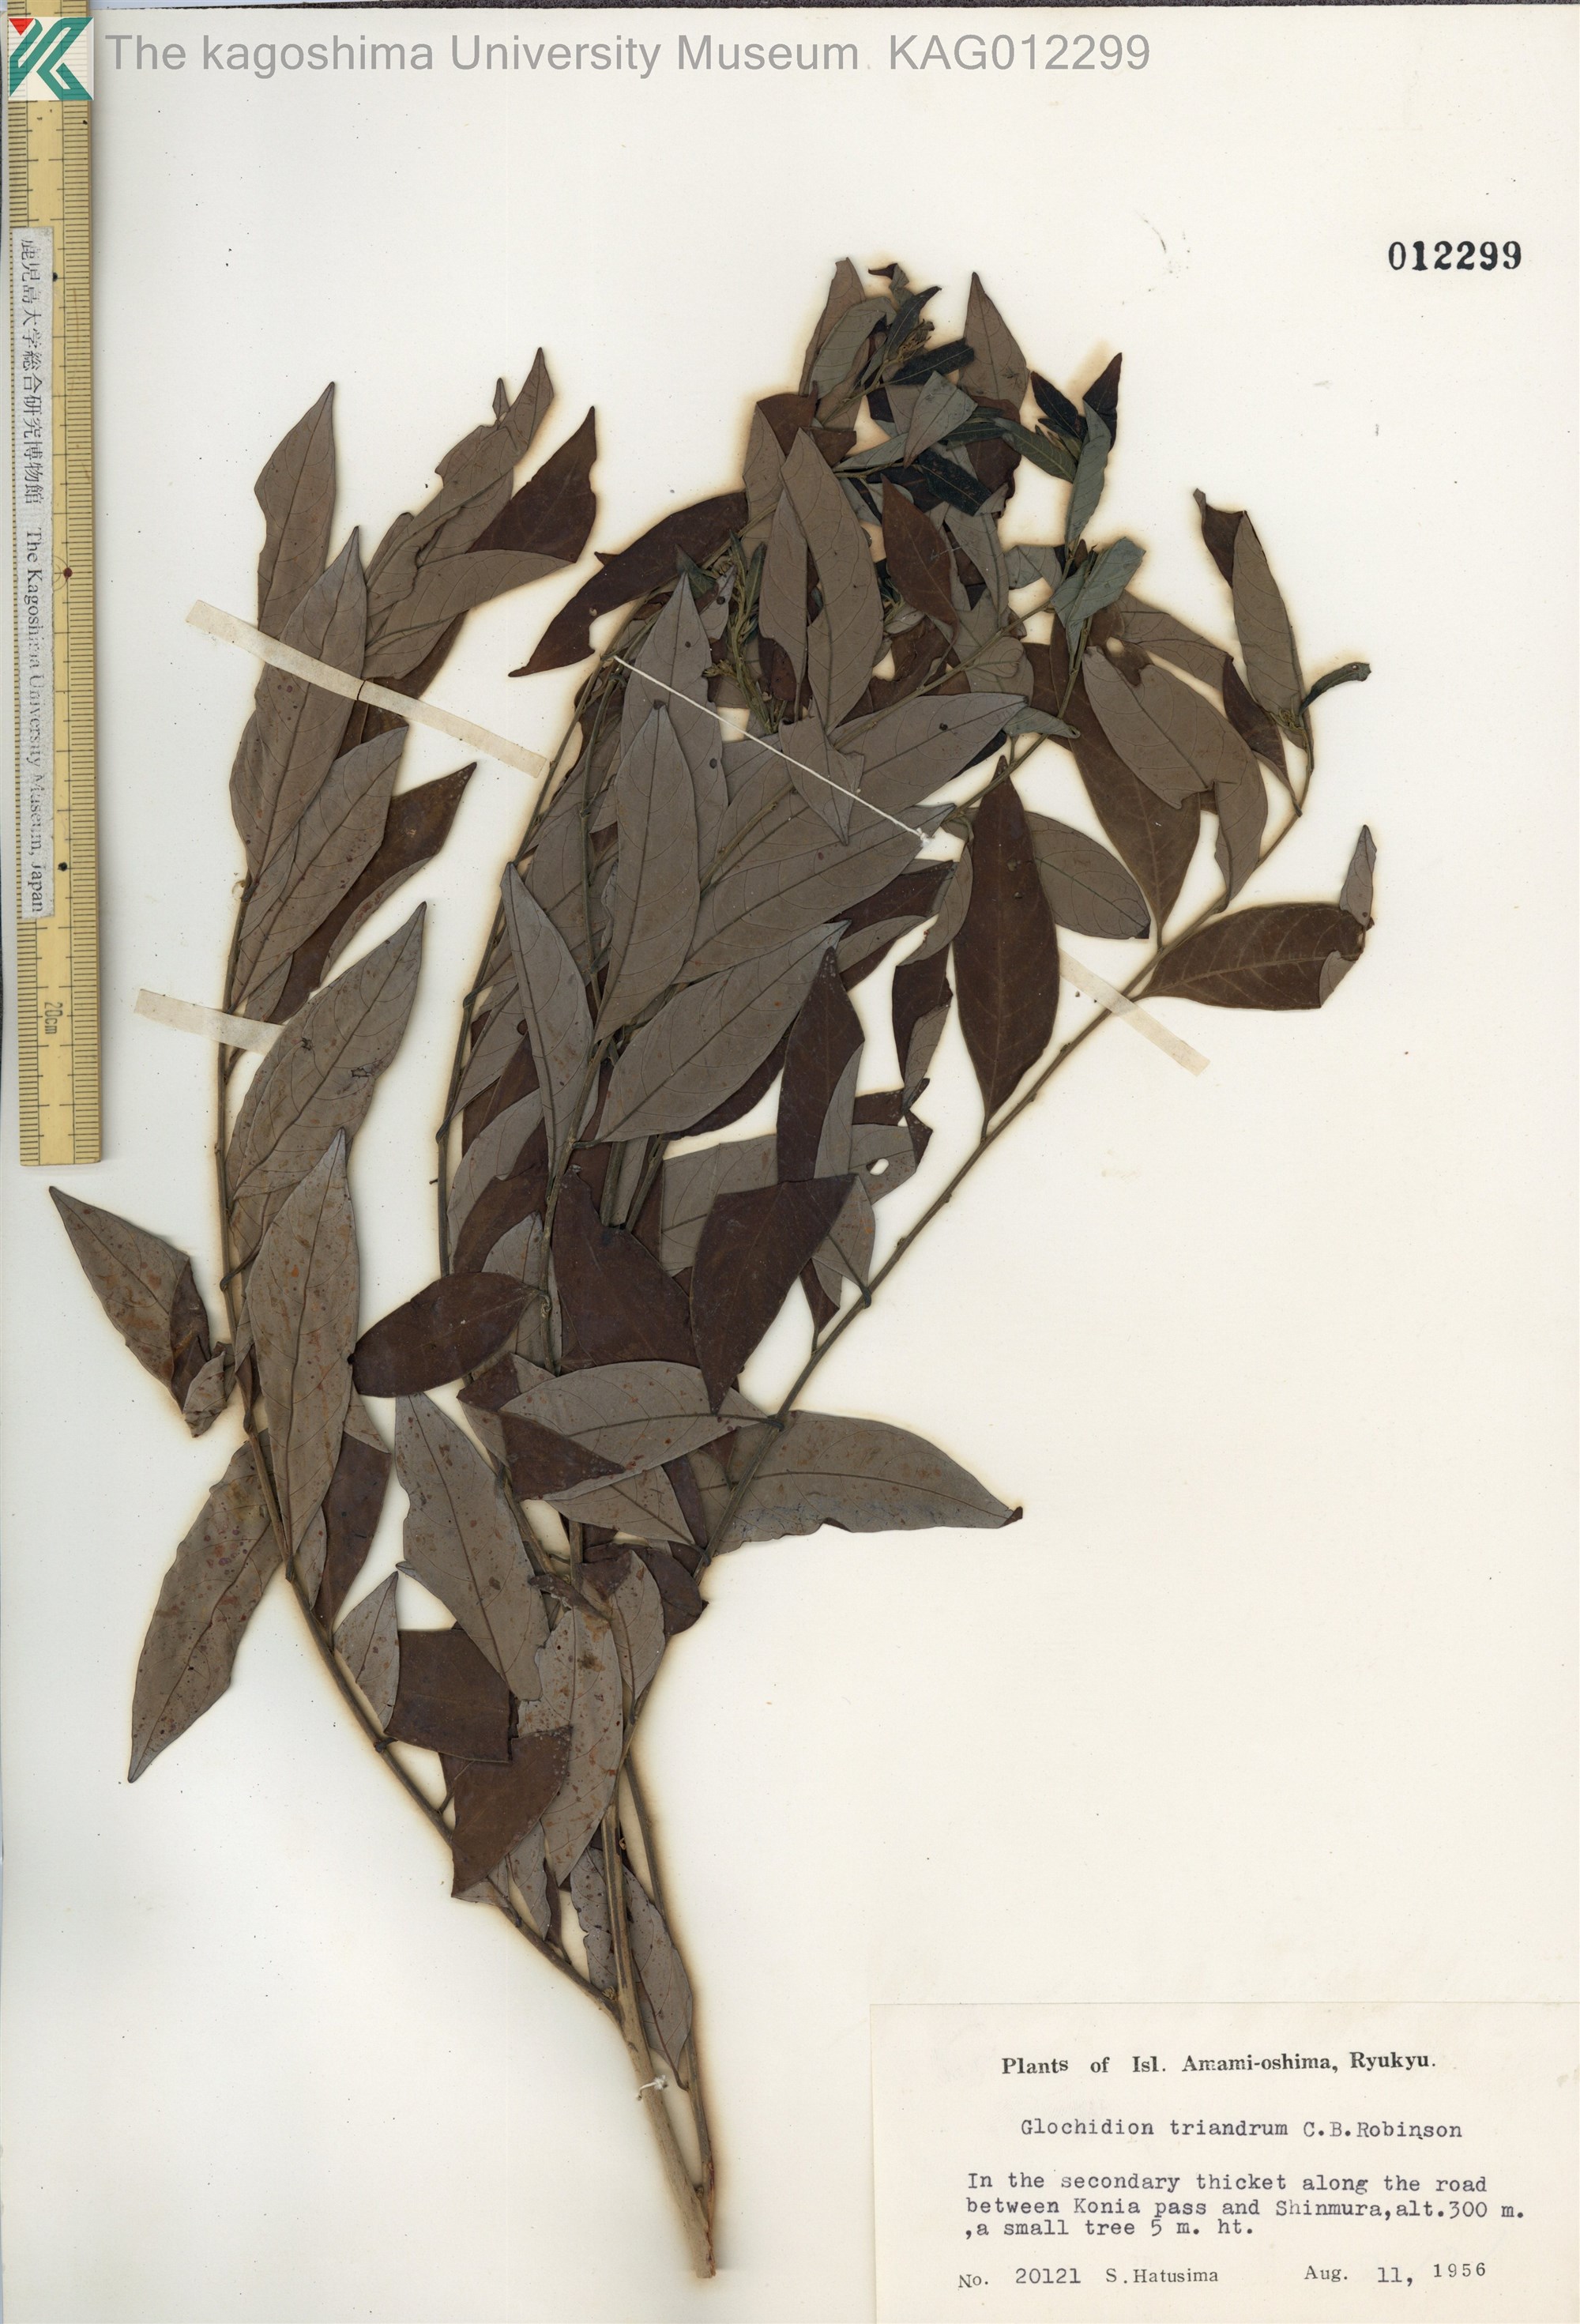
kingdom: Plantae
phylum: Tracheophyta
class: Magnoliopsida
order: Malpighiales
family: Phyllanthaceae
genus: Glochidion
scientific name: Glochidion triandrum
